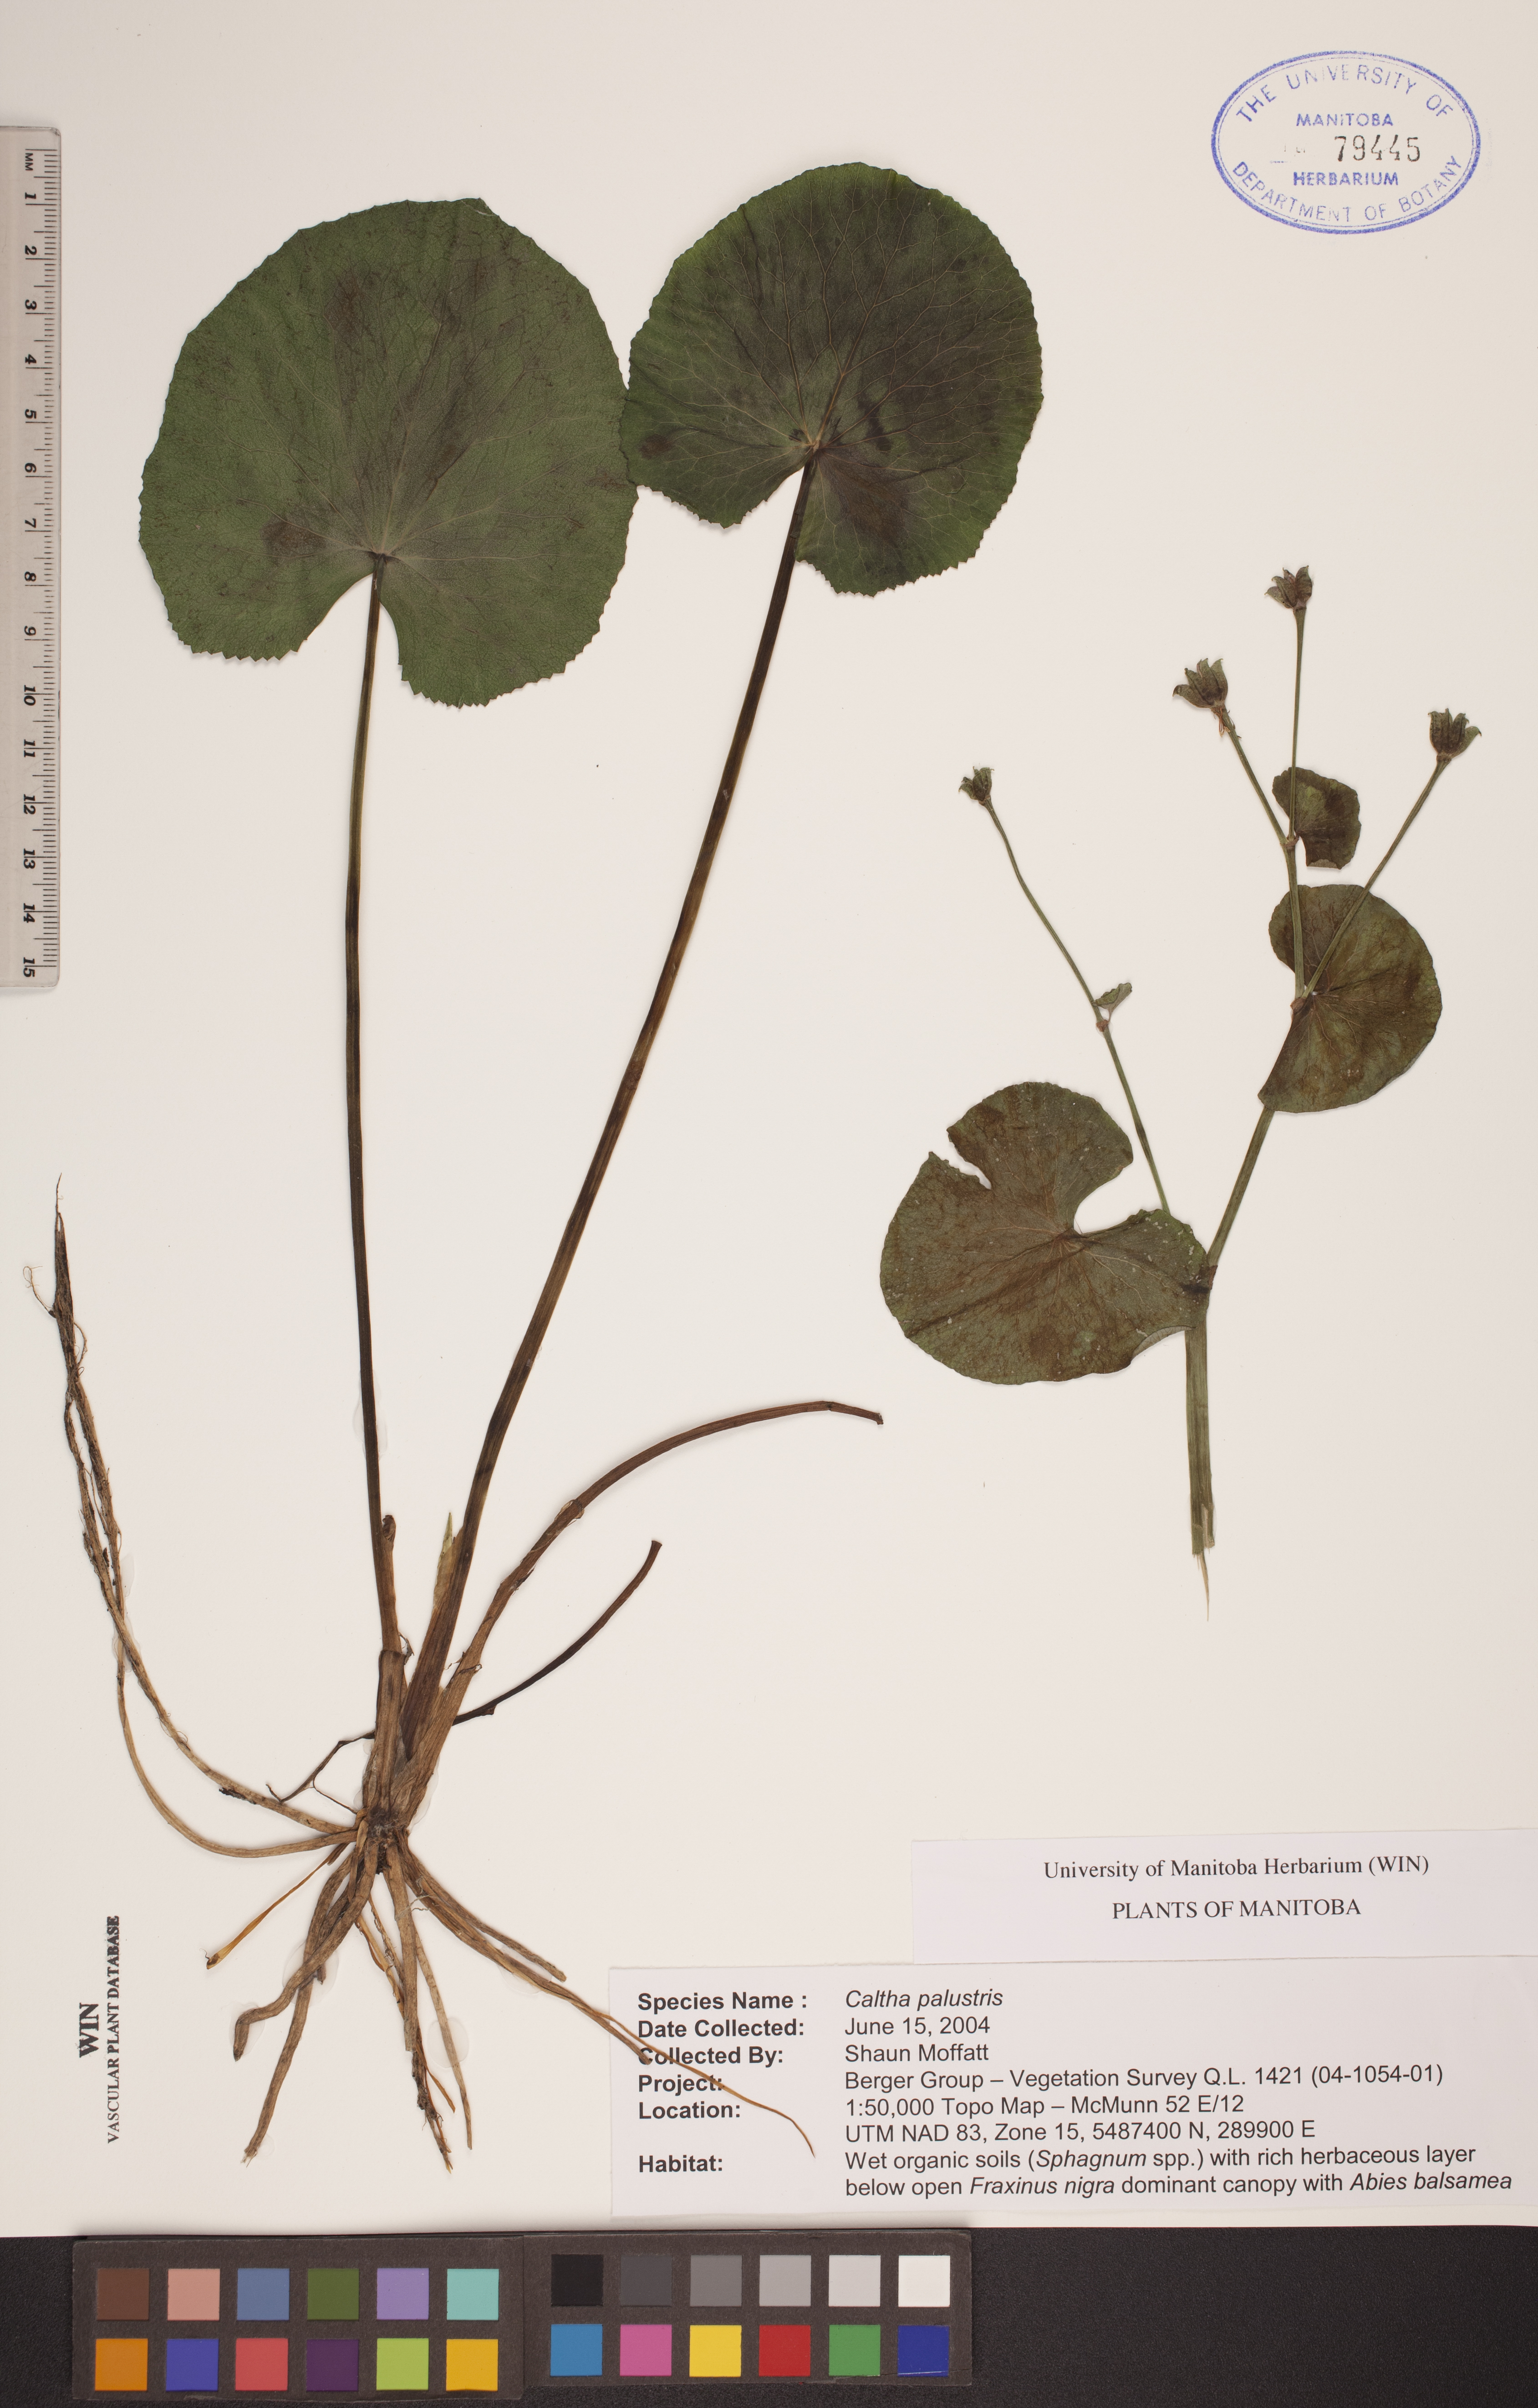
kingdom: Plantae
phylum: Tracheophyta
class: Magnoliopsida
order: Ranunculales
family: Ranunculaceae
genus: Caltha
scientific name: Caltha palustris
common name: Marsh marigold
